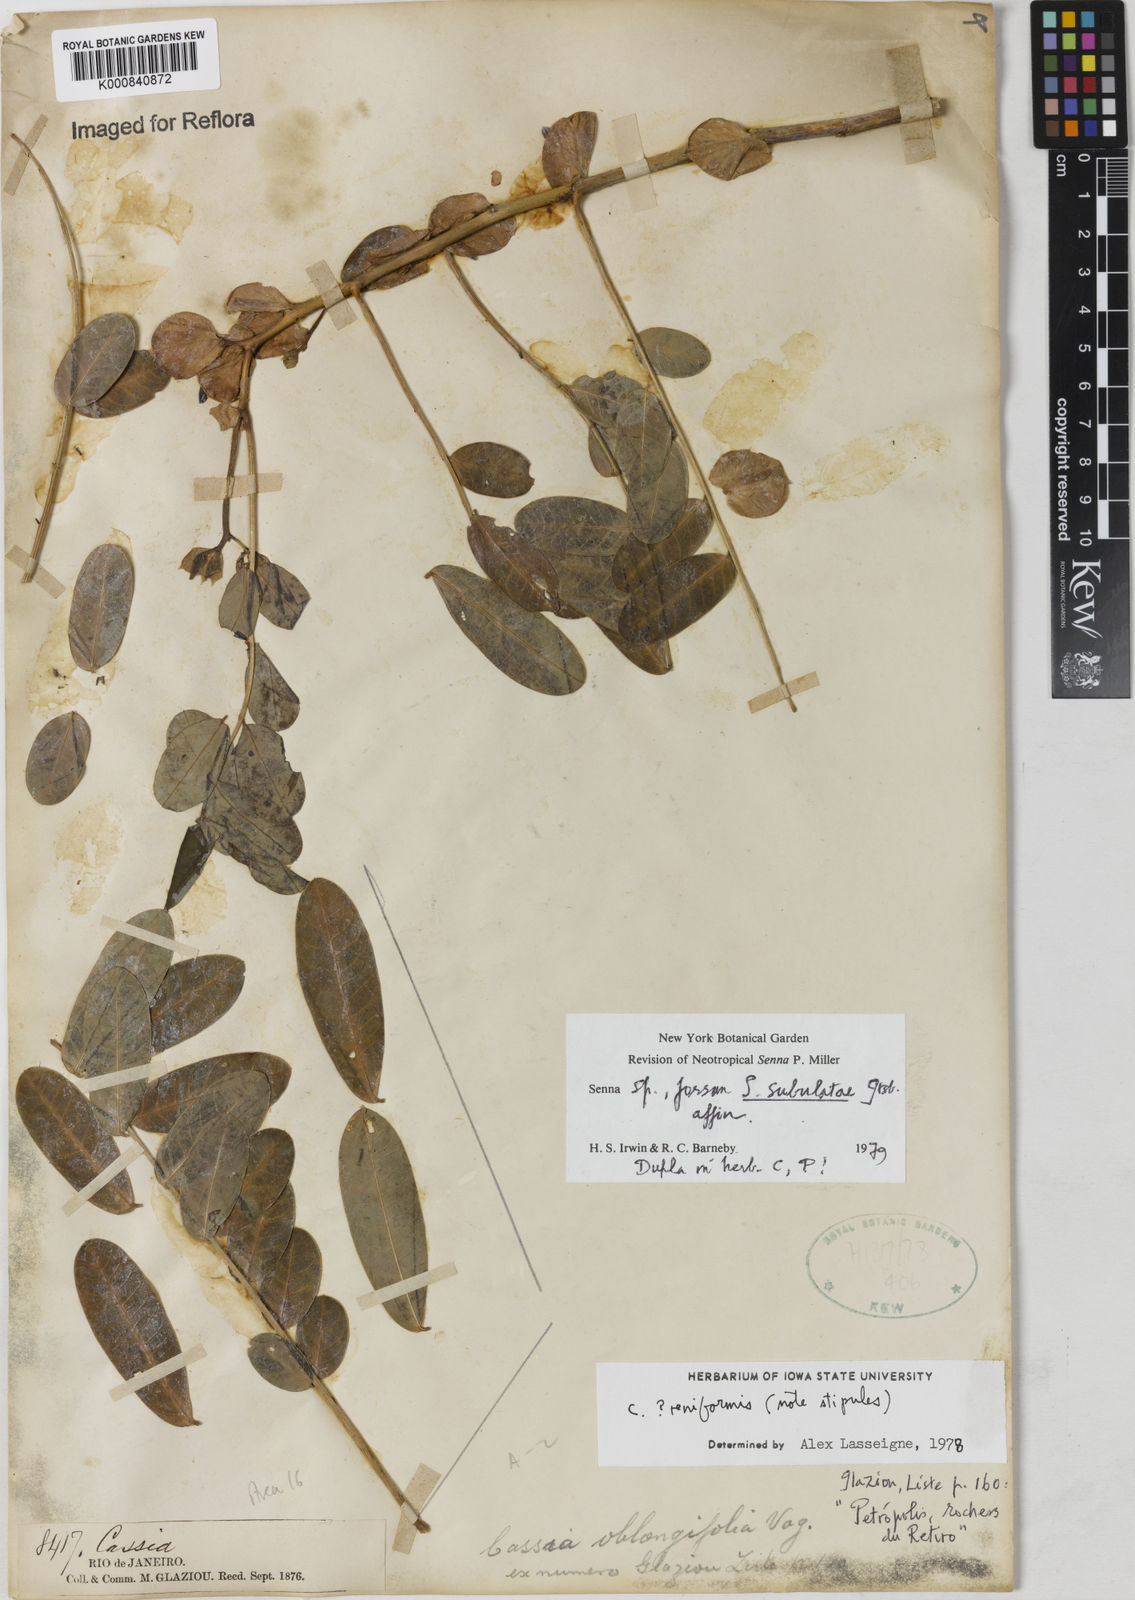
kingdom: Plantae
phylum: Tracheophyta
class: Magnoliopsida
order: Fabales
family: Fabaceae
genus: Senna
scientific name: Senna subulata
